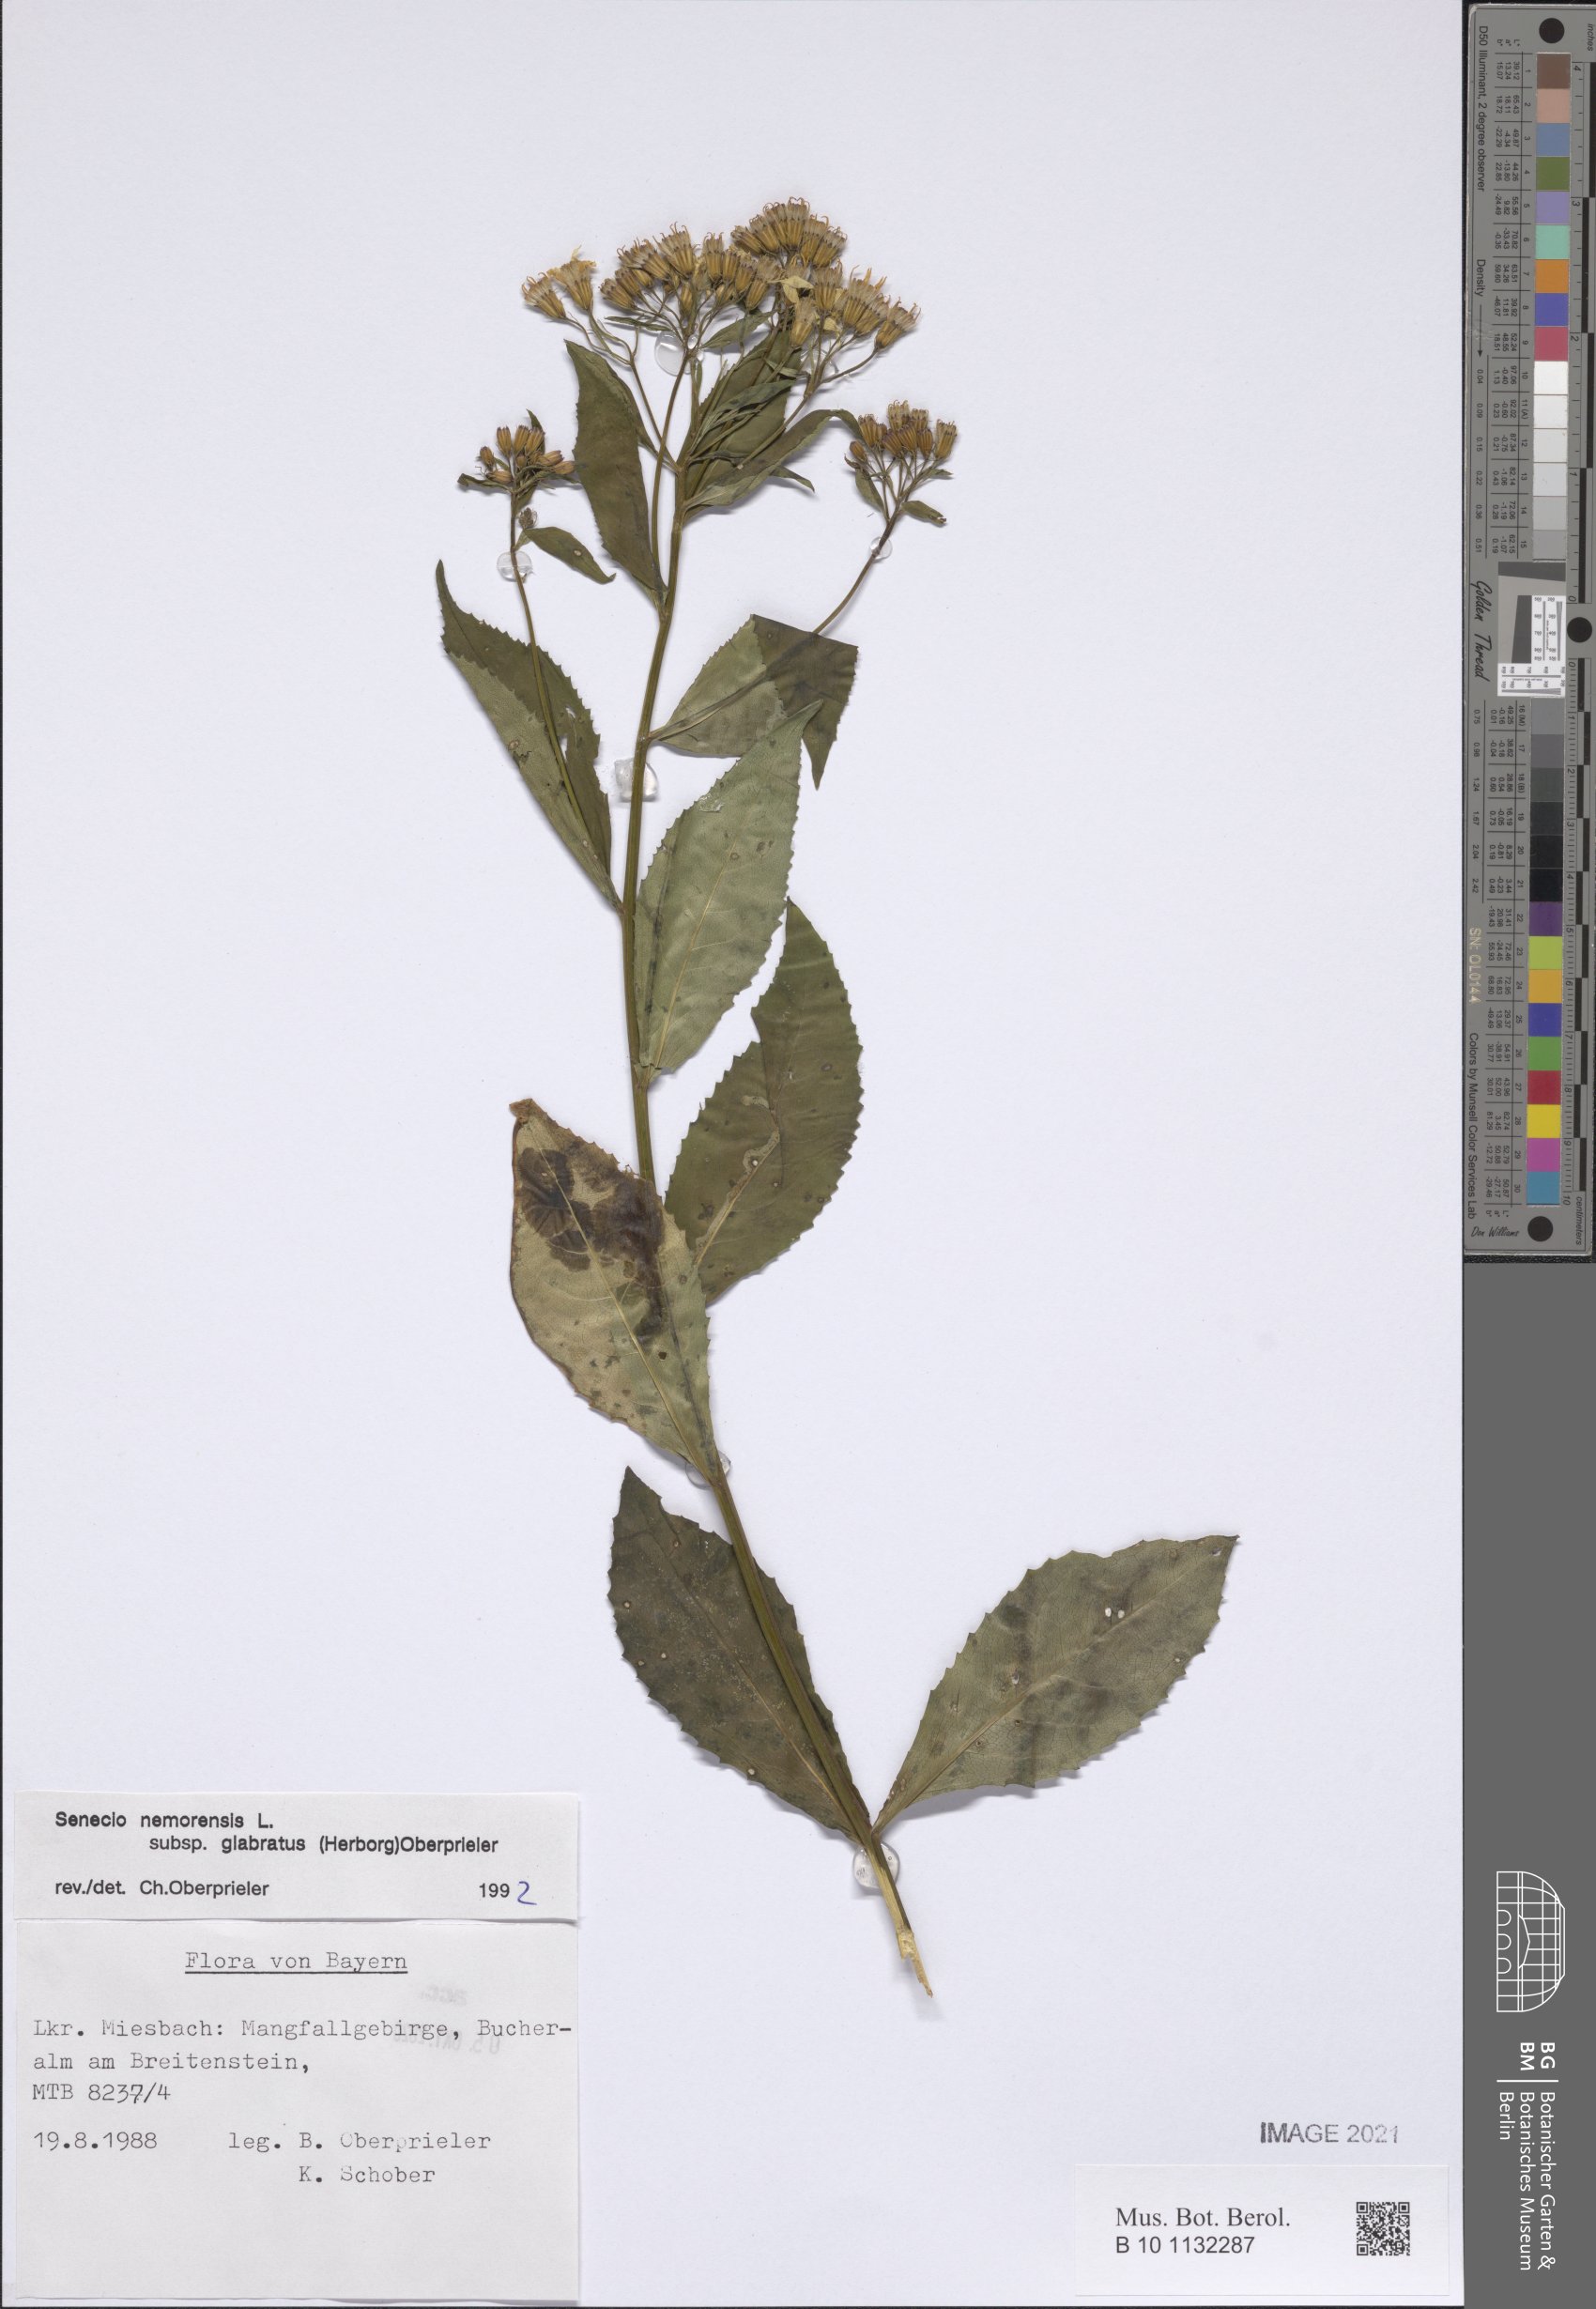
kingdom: Plantae
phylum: Tracheophyta
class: Magnoliopsida
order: Asterales
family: Asteraceae
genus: Senecio
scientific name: Senecio germanicus
